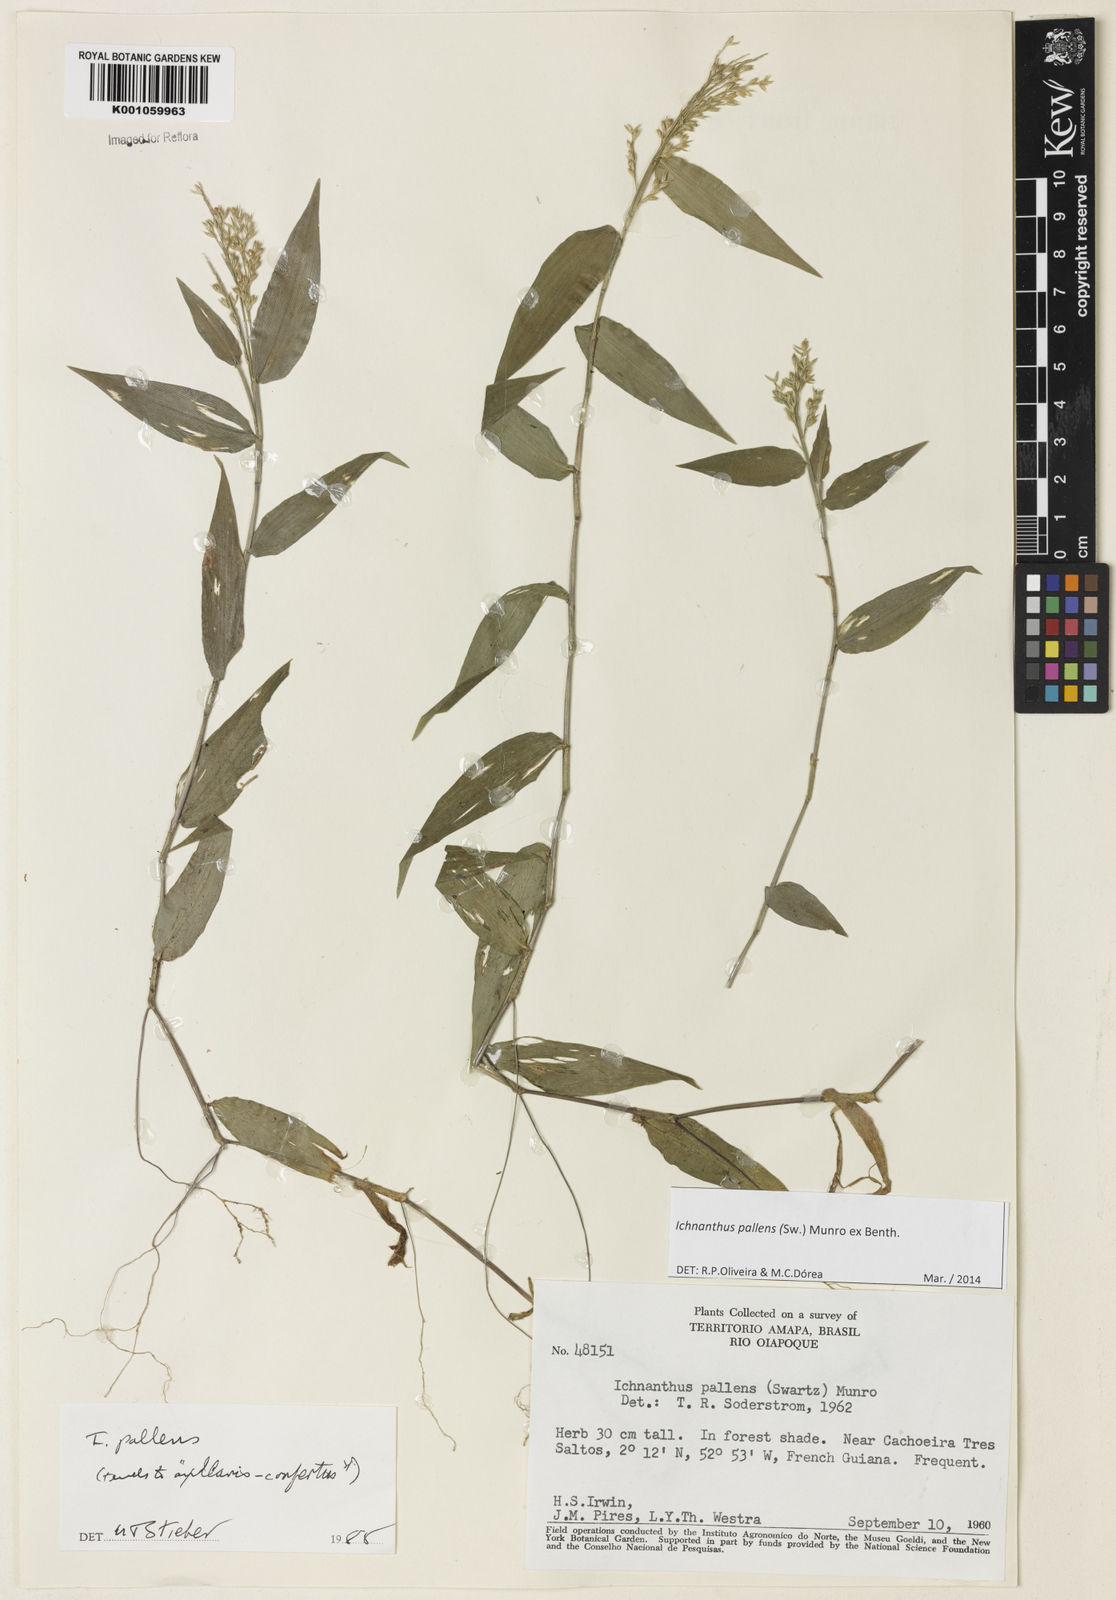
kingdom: Plantae
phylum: Tracheophyta
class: Liliopsida
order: Poales
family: Poaceae
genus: Ichnanthus
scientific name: Ichnanthus pallens
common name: Water grass
